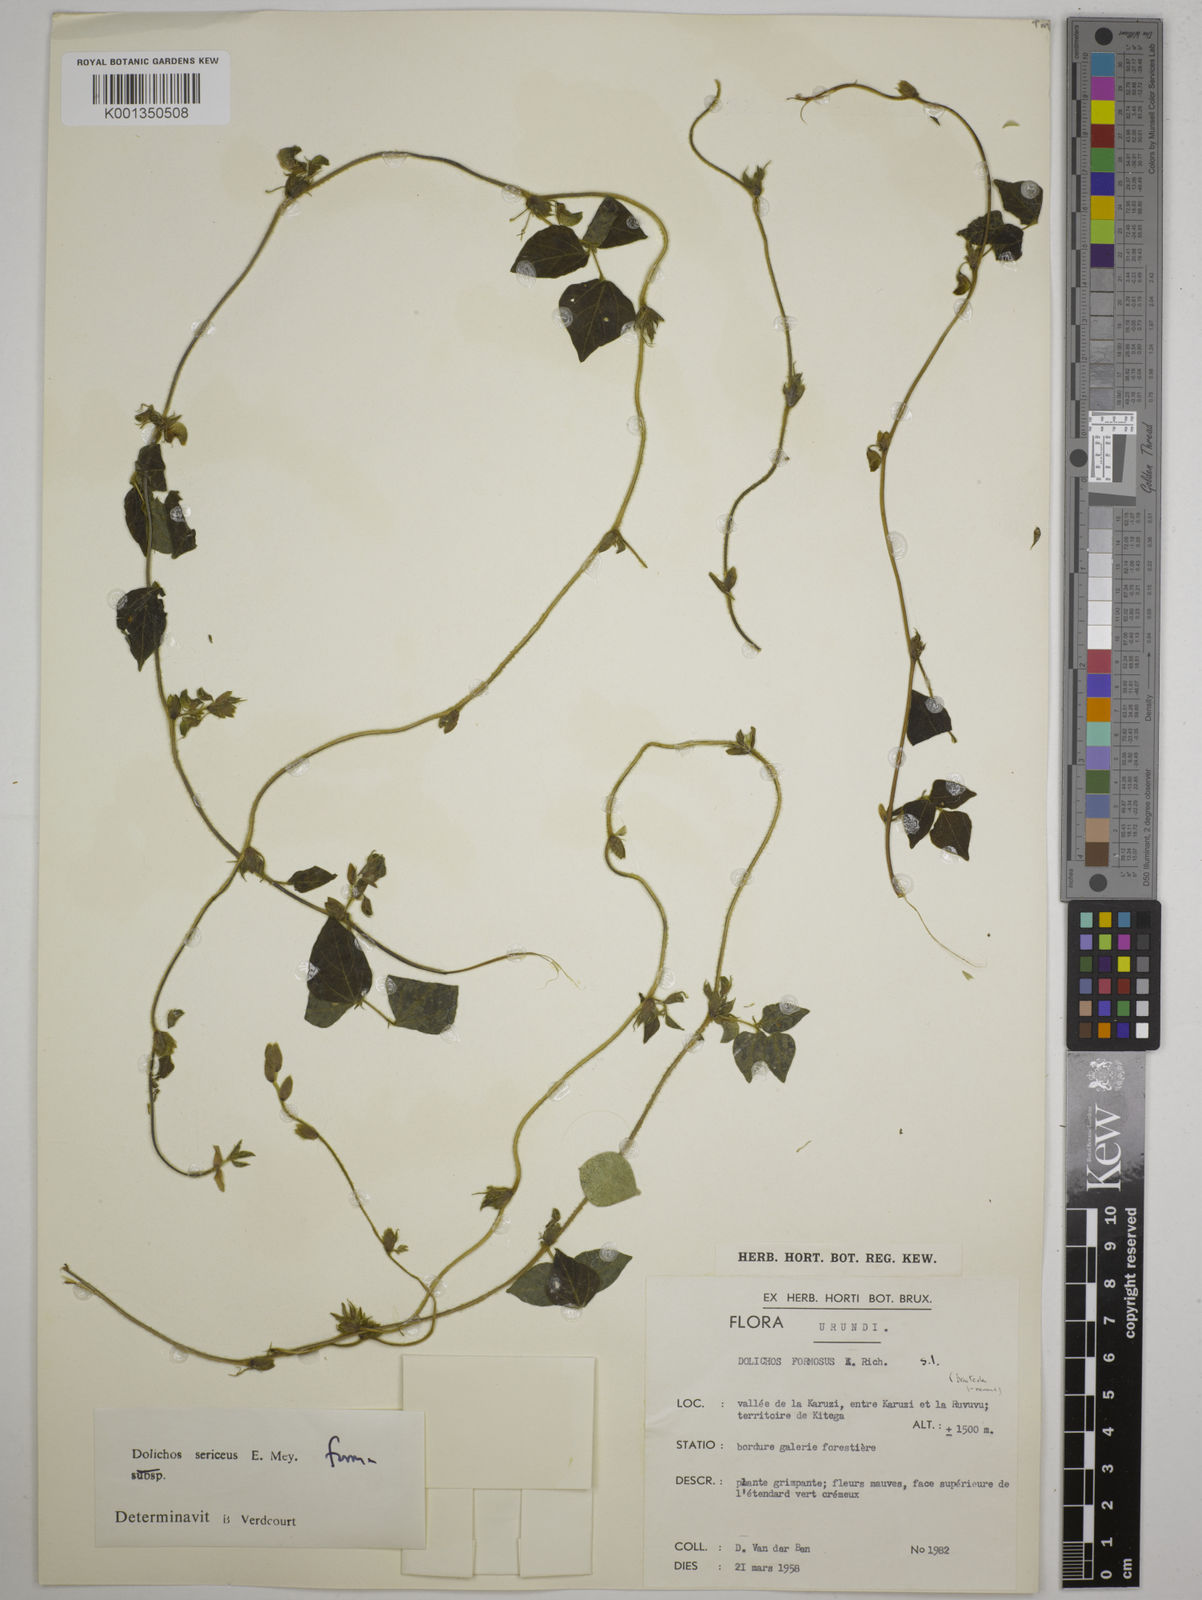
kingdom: Plantae
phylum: Tracheophyta
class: Magnoliopsida
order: Fabales
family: Fabaceae
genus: Dolichos
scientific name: Dolichos sericeus
